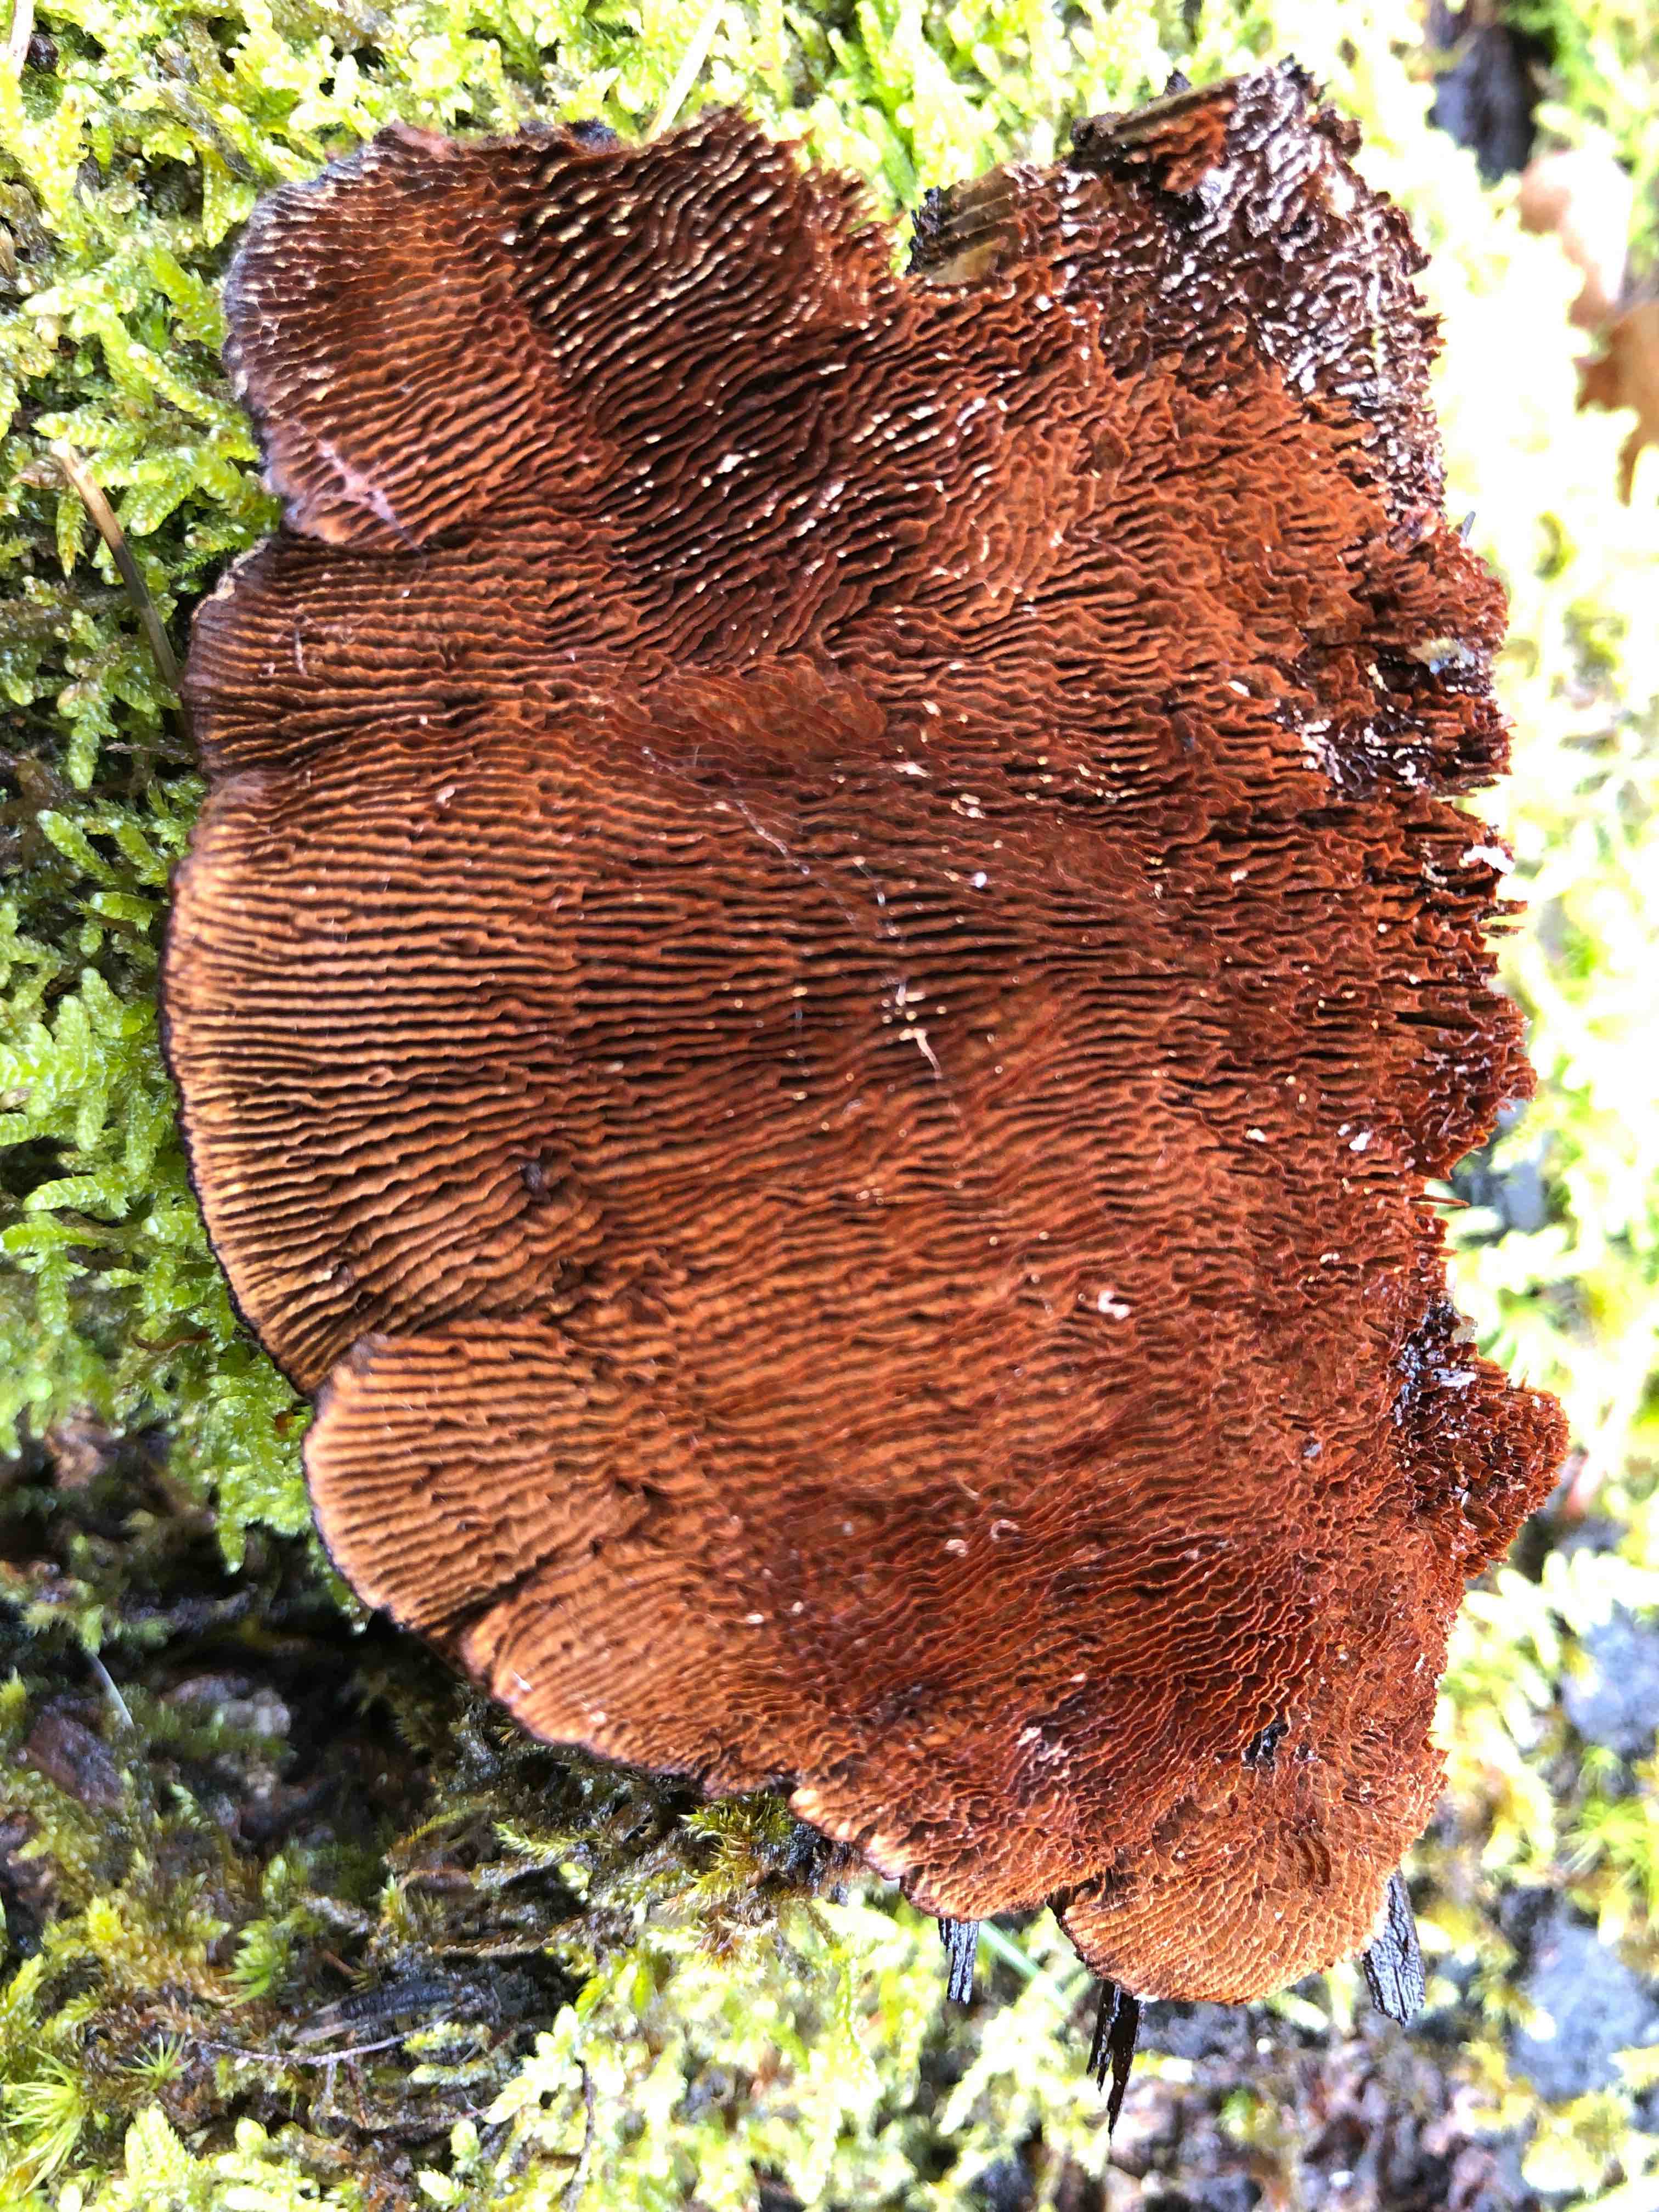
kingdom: Fungi
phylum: Basidiomycota
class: Agaricomycetes
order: Gloeophyllales
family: Gloeophyllaceae
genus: Gloeophyllum
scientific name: Gloeophyllum sepiarium
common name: fyrre-korkhat
